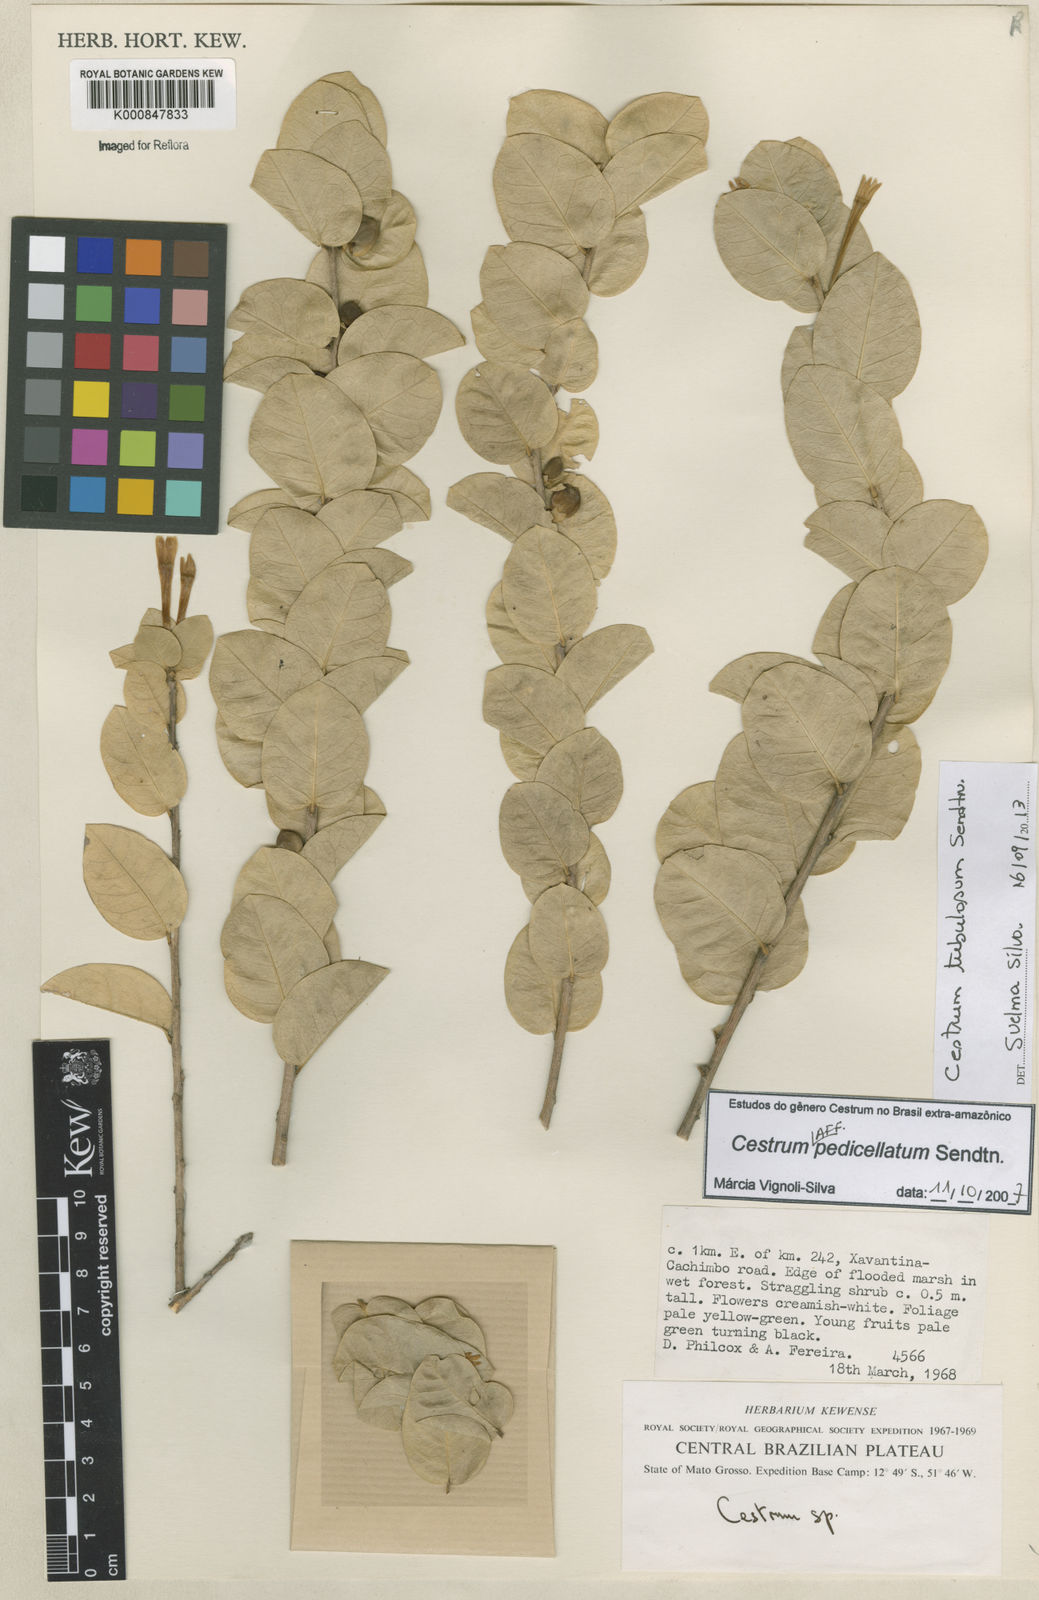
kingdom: Plantae
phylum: Tracheophyta
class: Magnoliopsida
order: Solanales
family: Solanaceae
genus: Cestrum
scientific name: Cestrum pedicellatum
